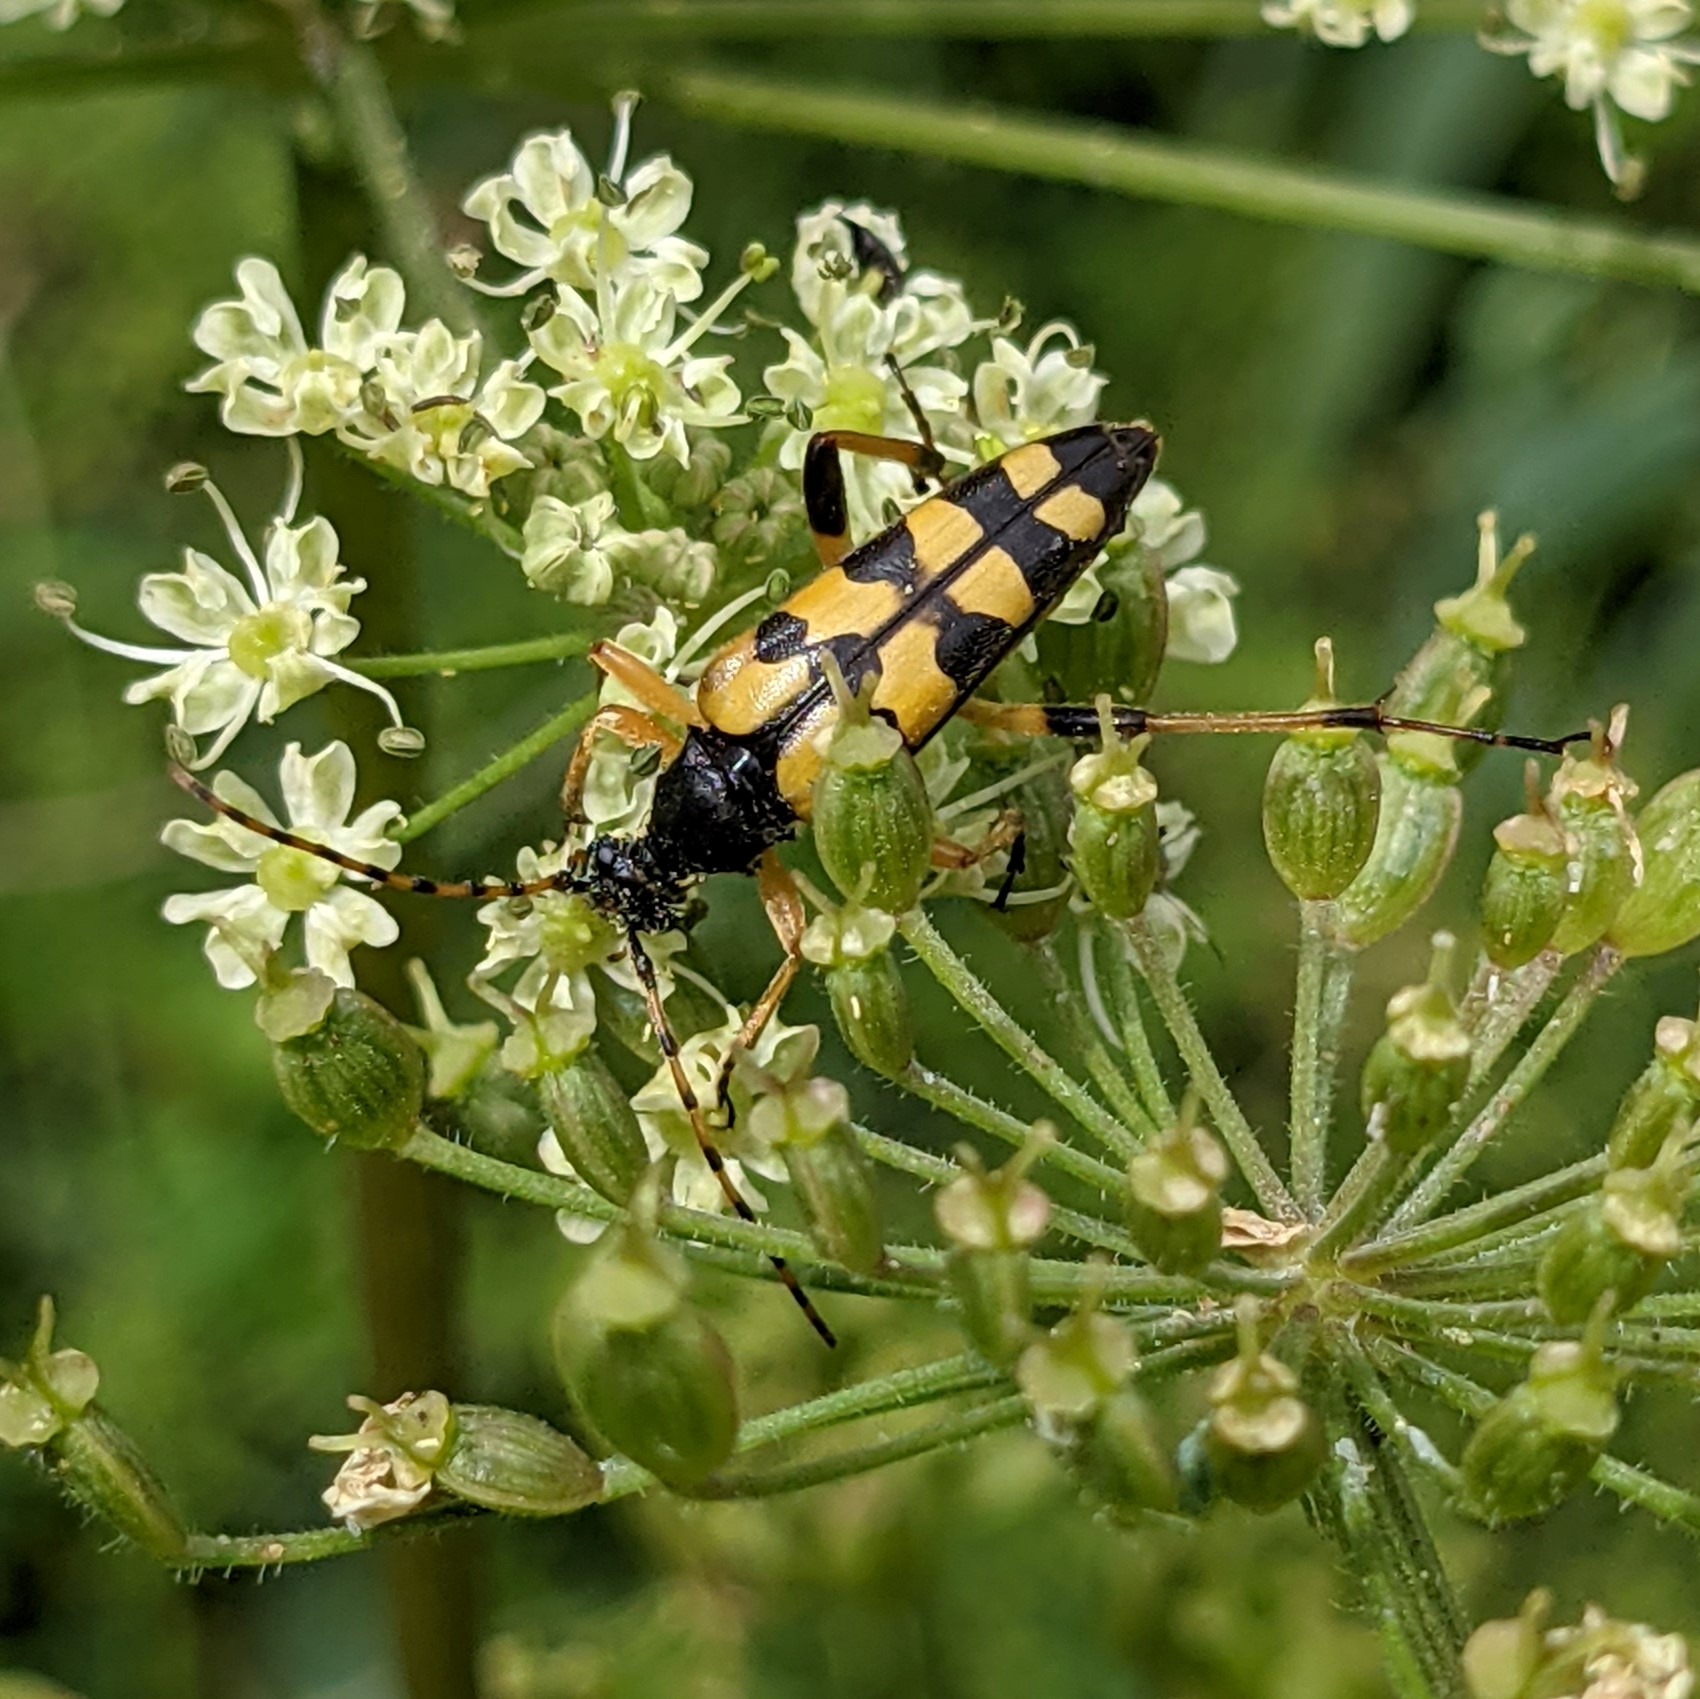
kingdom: Animalia
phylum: Arthropoda
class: Insecta
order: Coleoptera
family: Cerambycidae
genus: Rutpela
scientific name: Rutpela maculata
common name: Sydlig blomsterbuk
